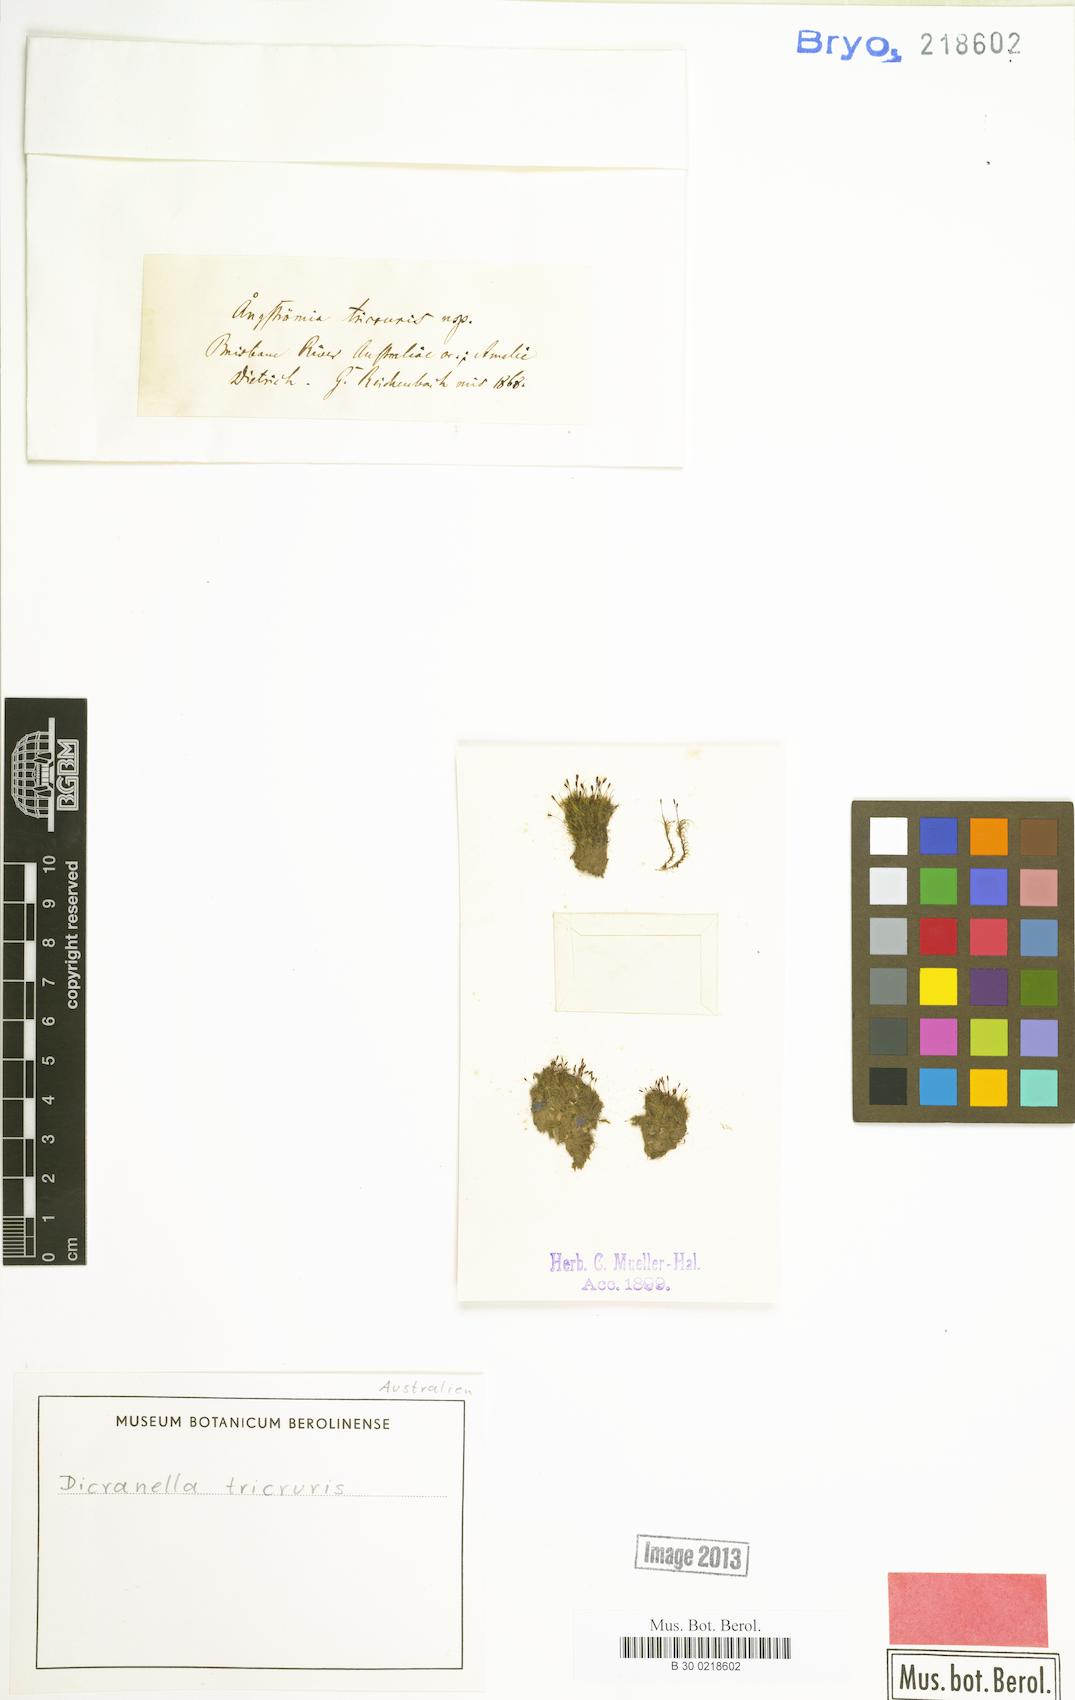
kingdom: Plantae
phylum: Bryophyta
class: Bryopsida
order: Dicranales
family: Dicranellaceae
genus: Dicranella
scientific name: Dicranella dietrichiae
